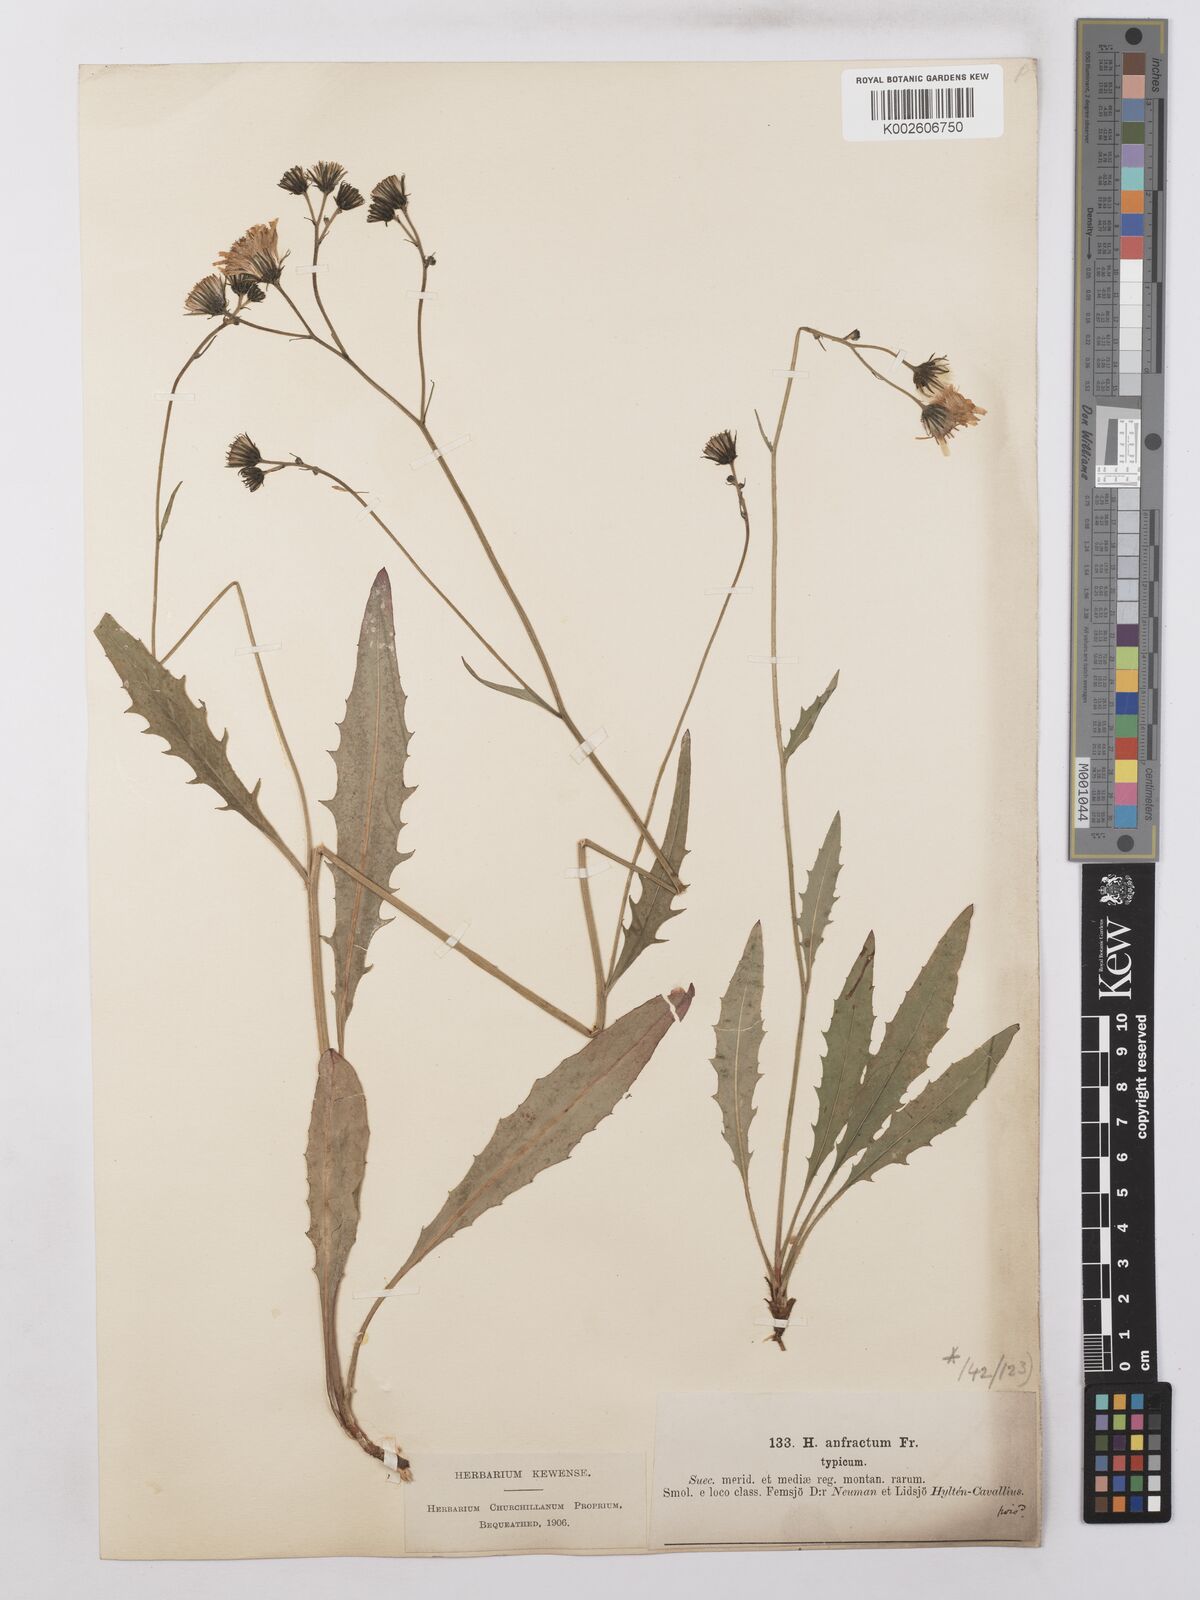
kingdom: Plantae
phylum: Tracheophyta
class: Magnoliopsida
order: Asterales
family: Asteraceae
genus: Hieracium
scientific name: Hieracium lachenalii
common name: Common hawkweed
